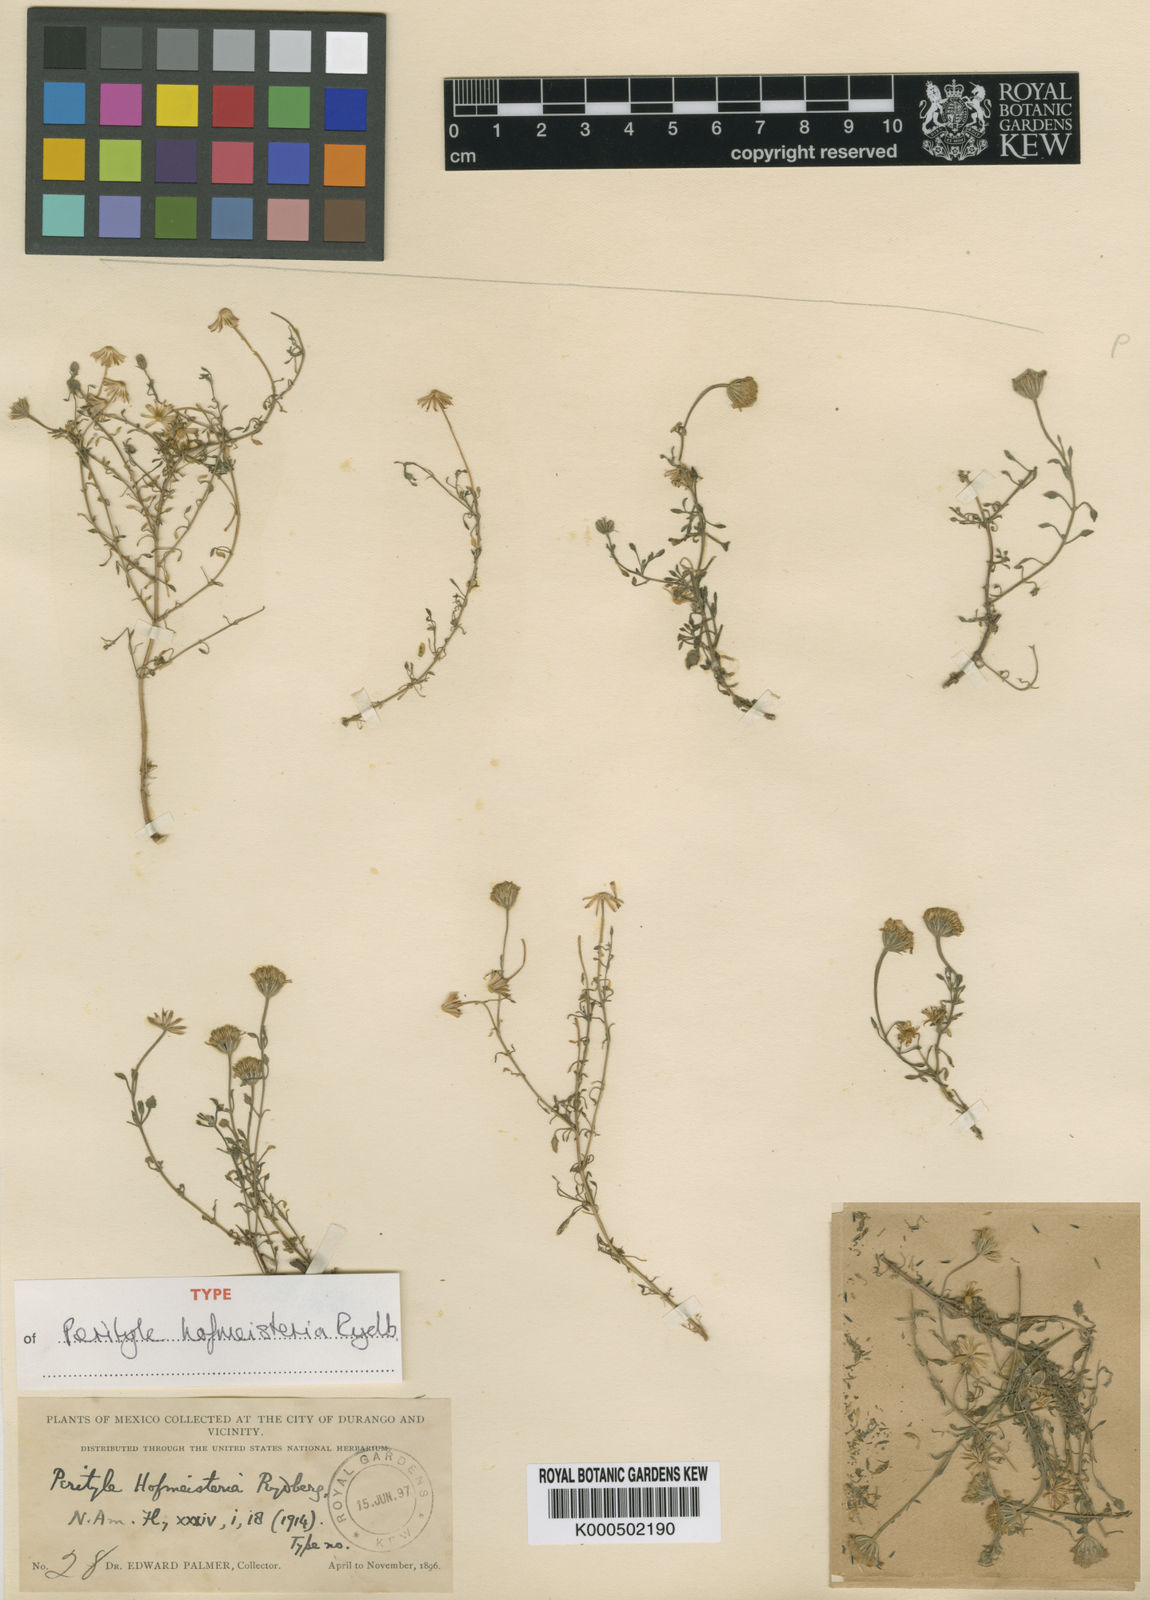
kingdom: Plantae
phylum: Tracheophyta
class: Magnoliopsida
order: Asterales
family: Asteraceae
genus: Galinsogeopsis
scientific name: Galinsogeopsis hofmeisteria
